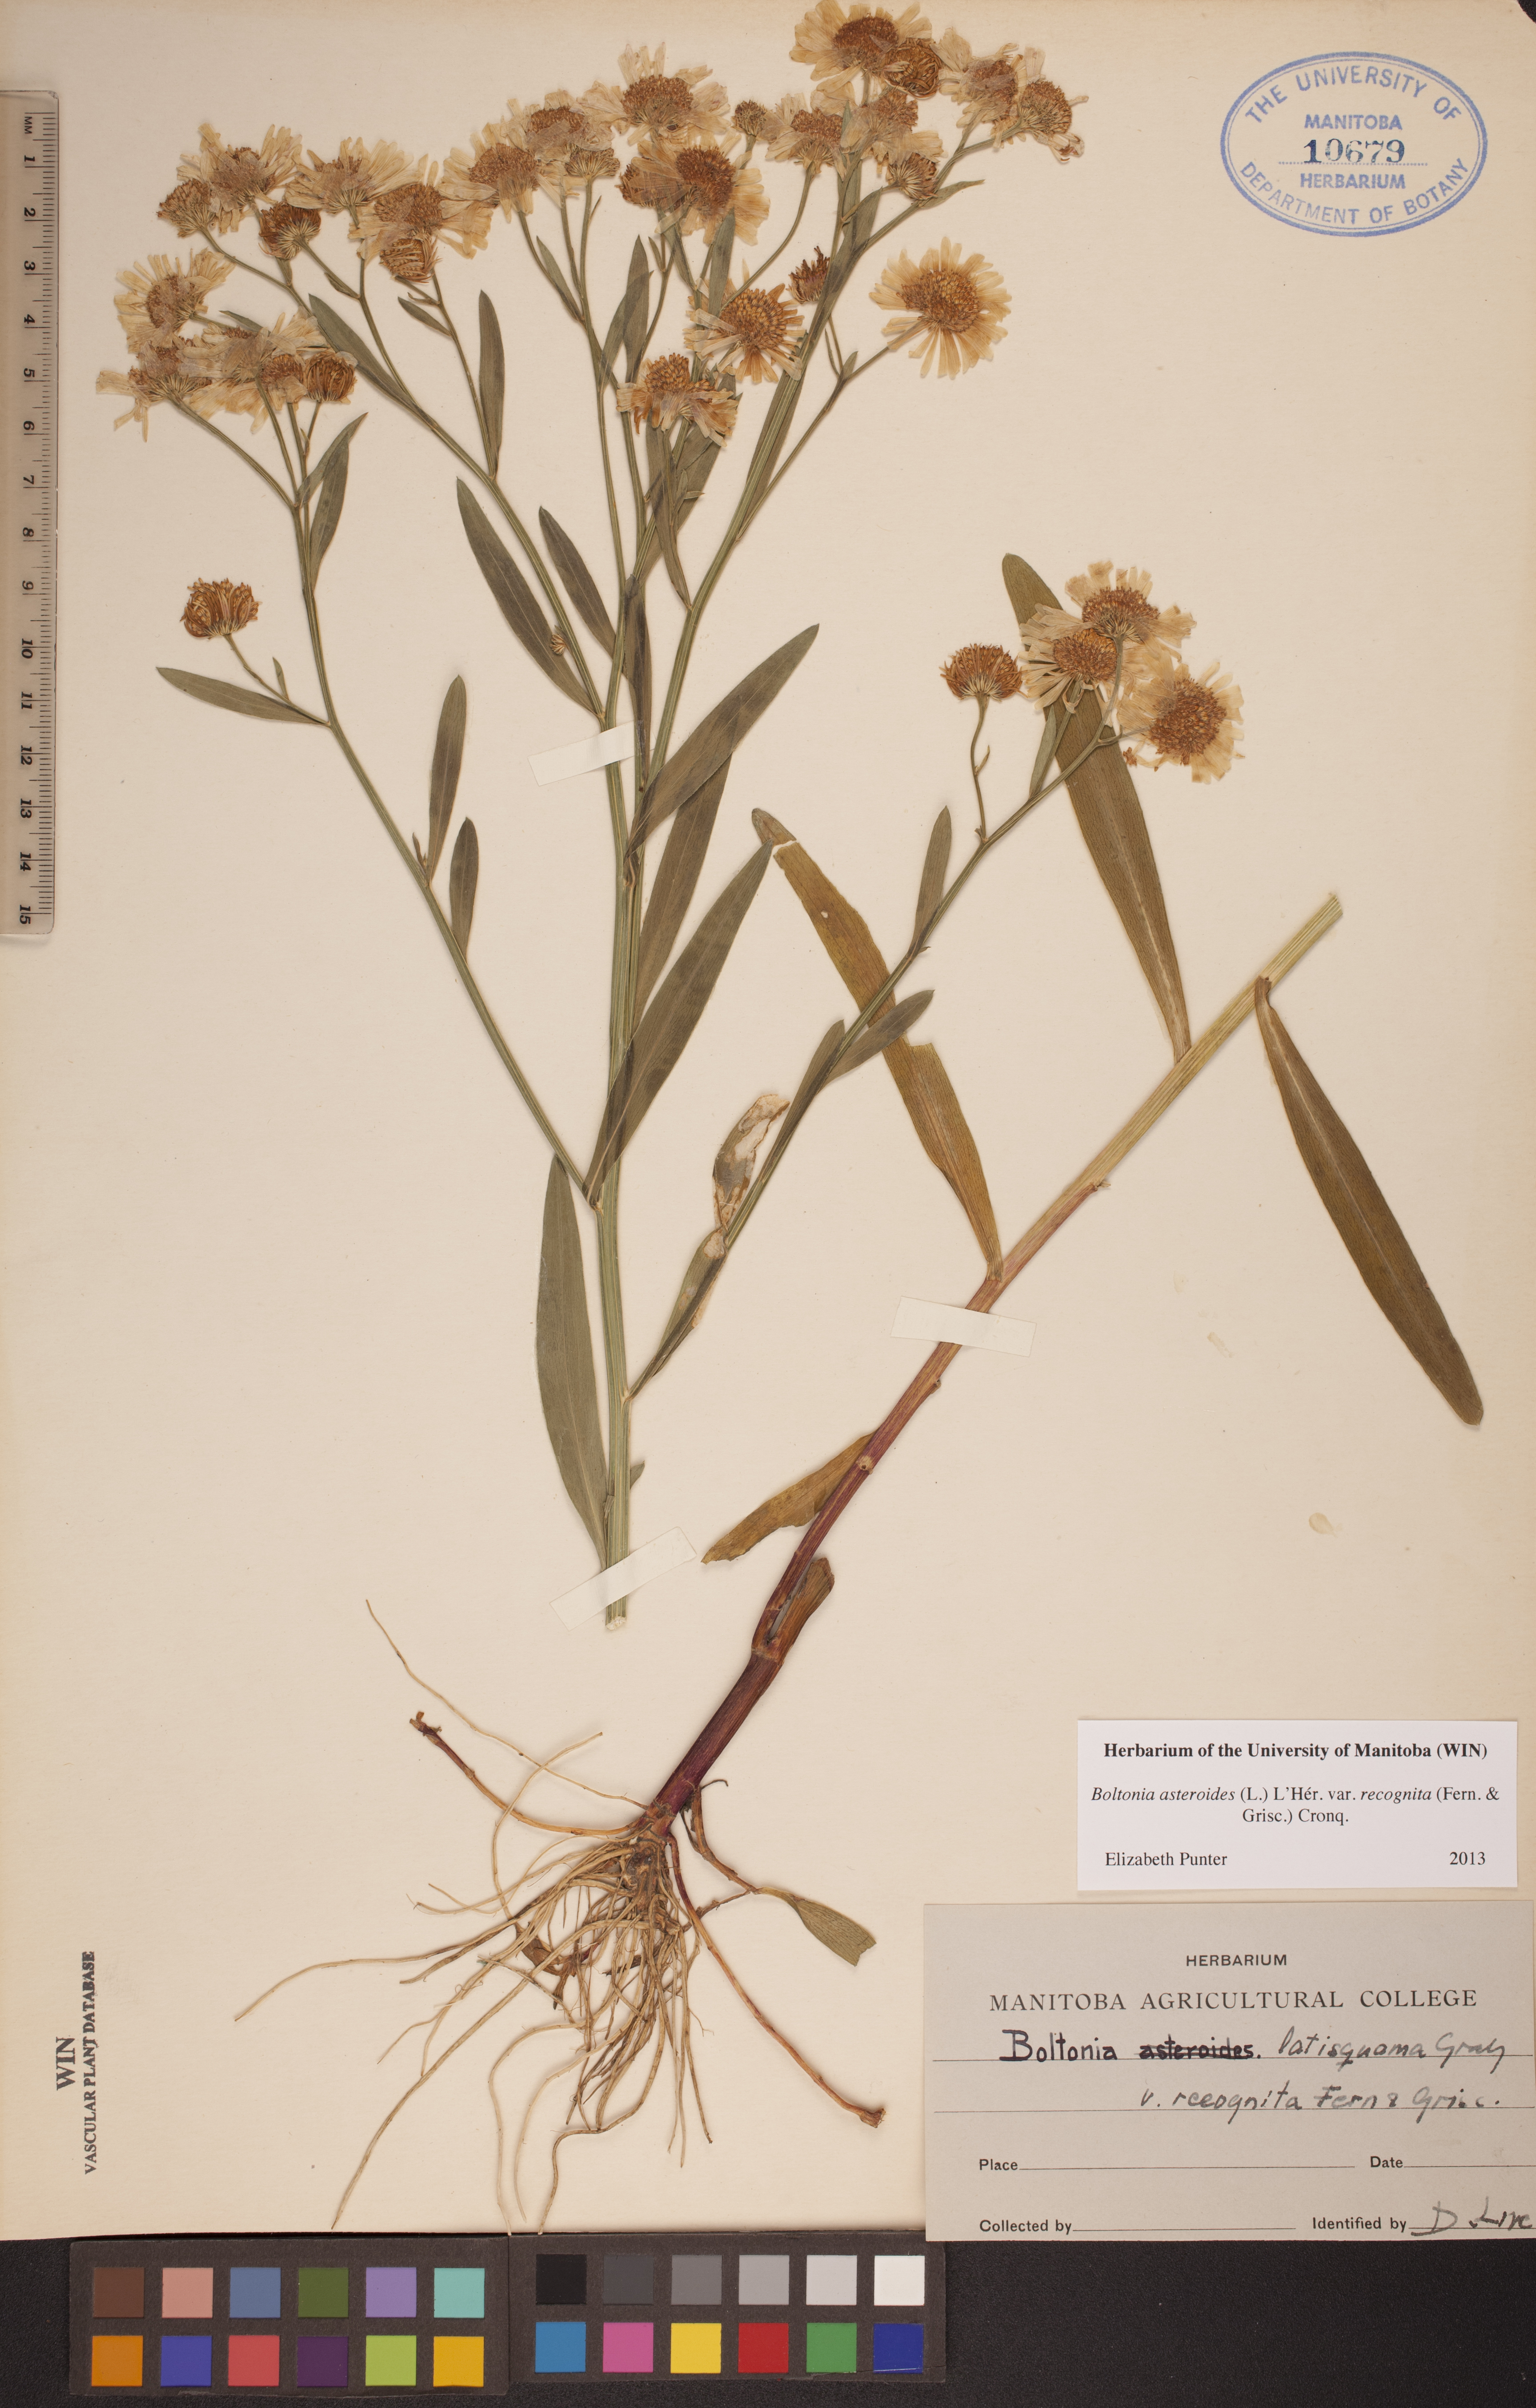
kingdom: Plantae
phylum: Tracheophyta
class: Magnoliopsida
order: Asterales
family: Asteraceae
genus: Boltonia
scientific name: Boltonia asteroides
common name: False chamomile
